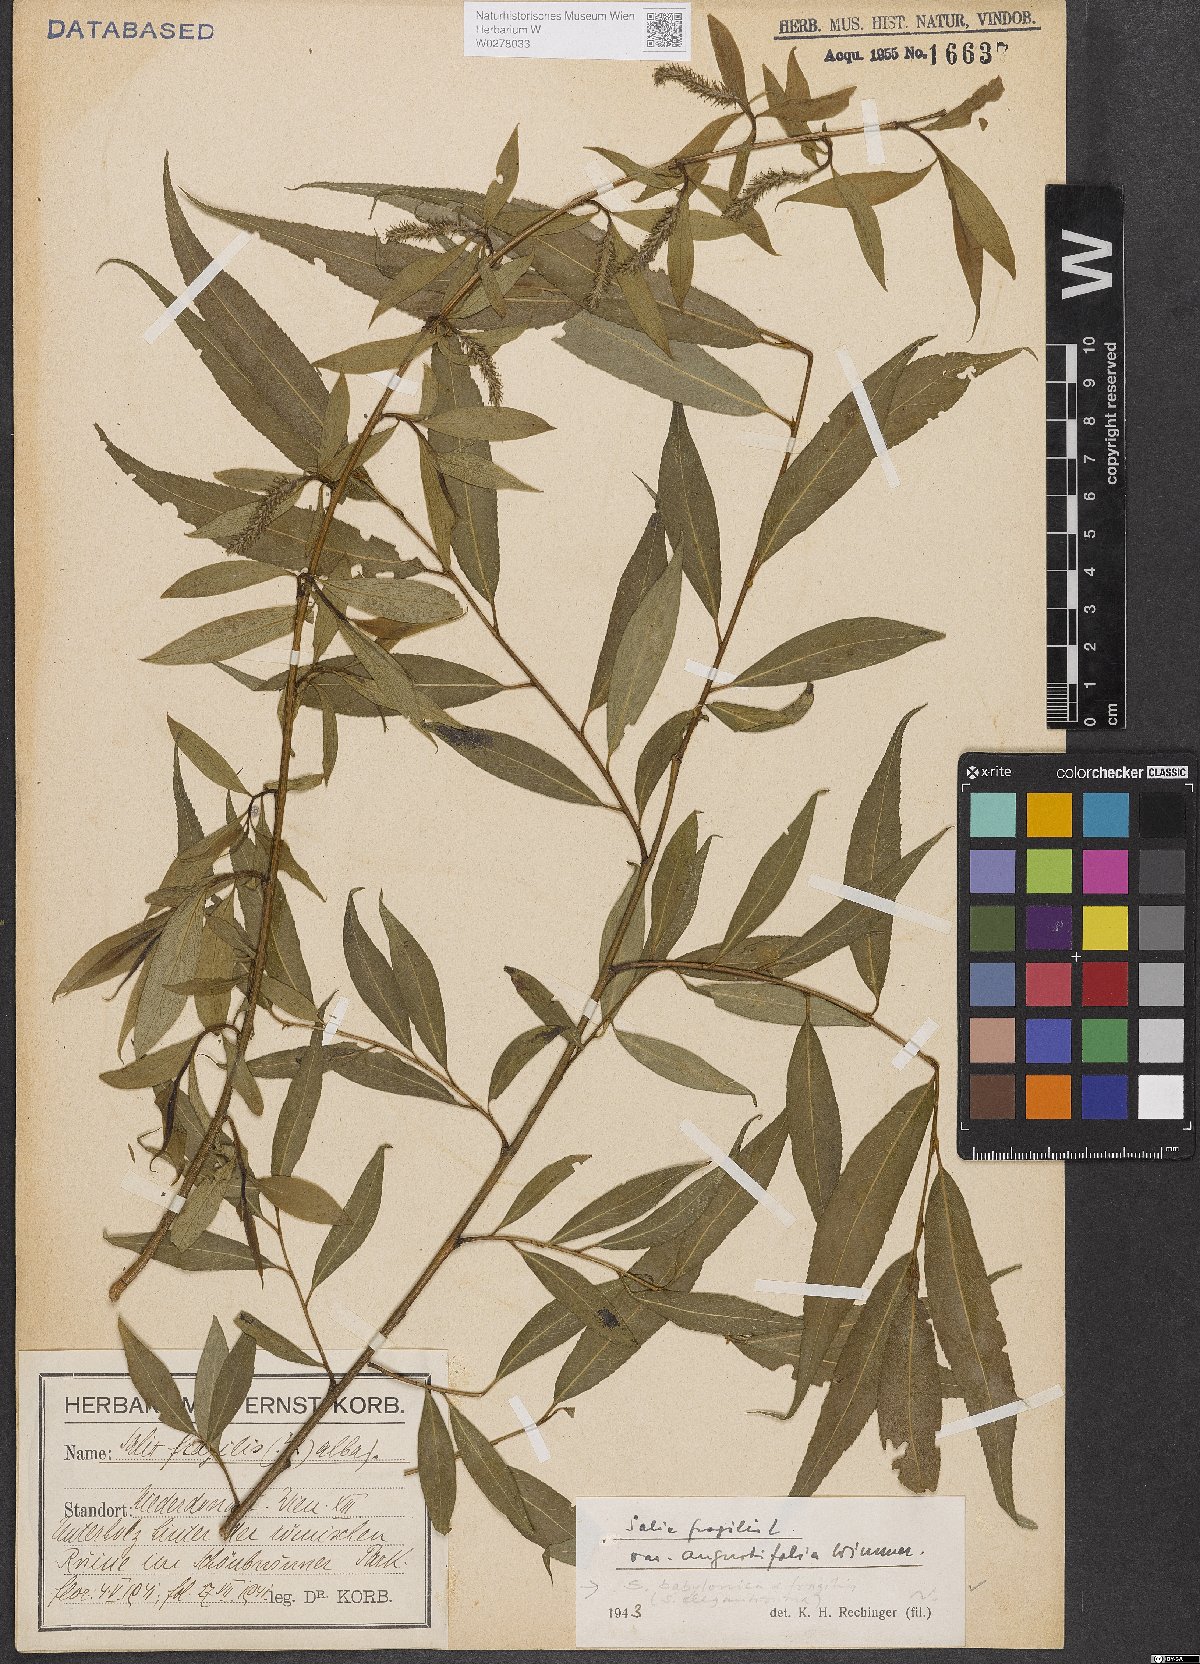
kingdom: Plantae
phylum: Tracheophyta
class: Magnoliopsida
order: Malpighiales
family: Salicaceae
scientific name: Salicaceae
